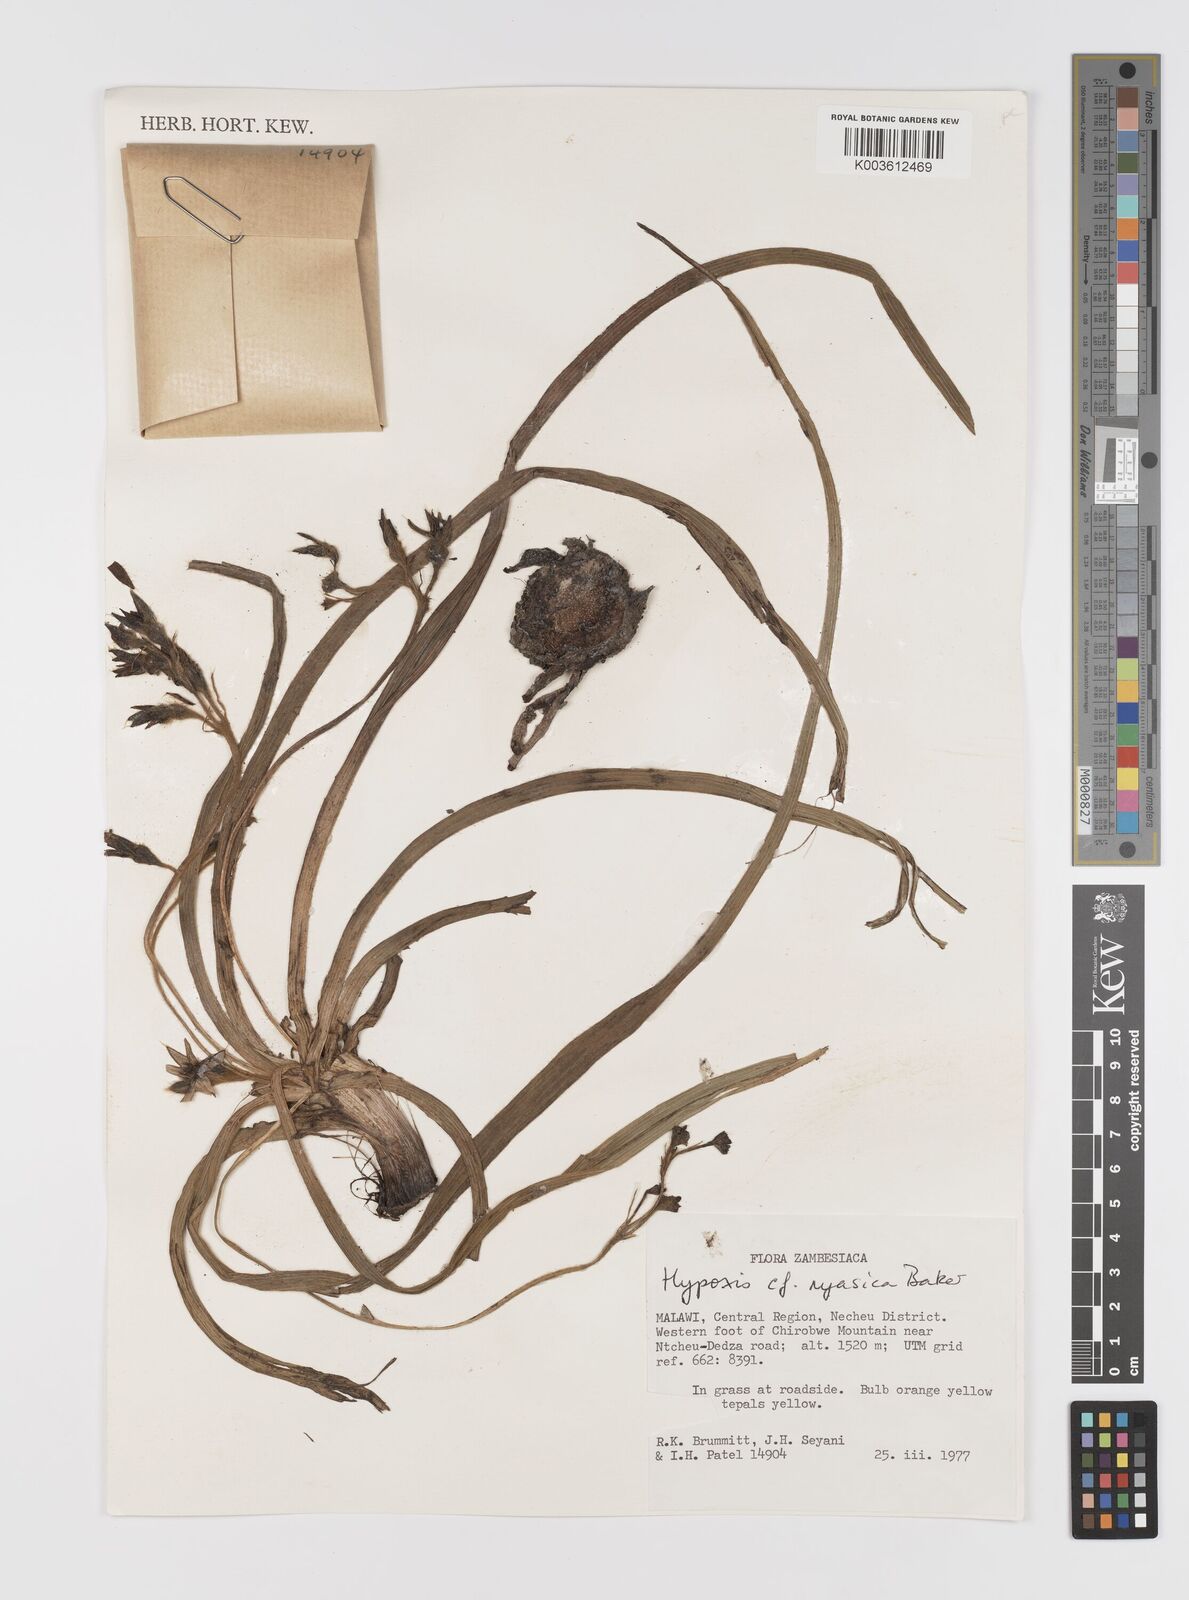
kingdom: Plantae
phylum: Tracheophyta
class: Liliopsida
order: Asparagales
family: Hypoxidaceae
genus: Hypoxis
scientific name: Hypoxis nyasica
